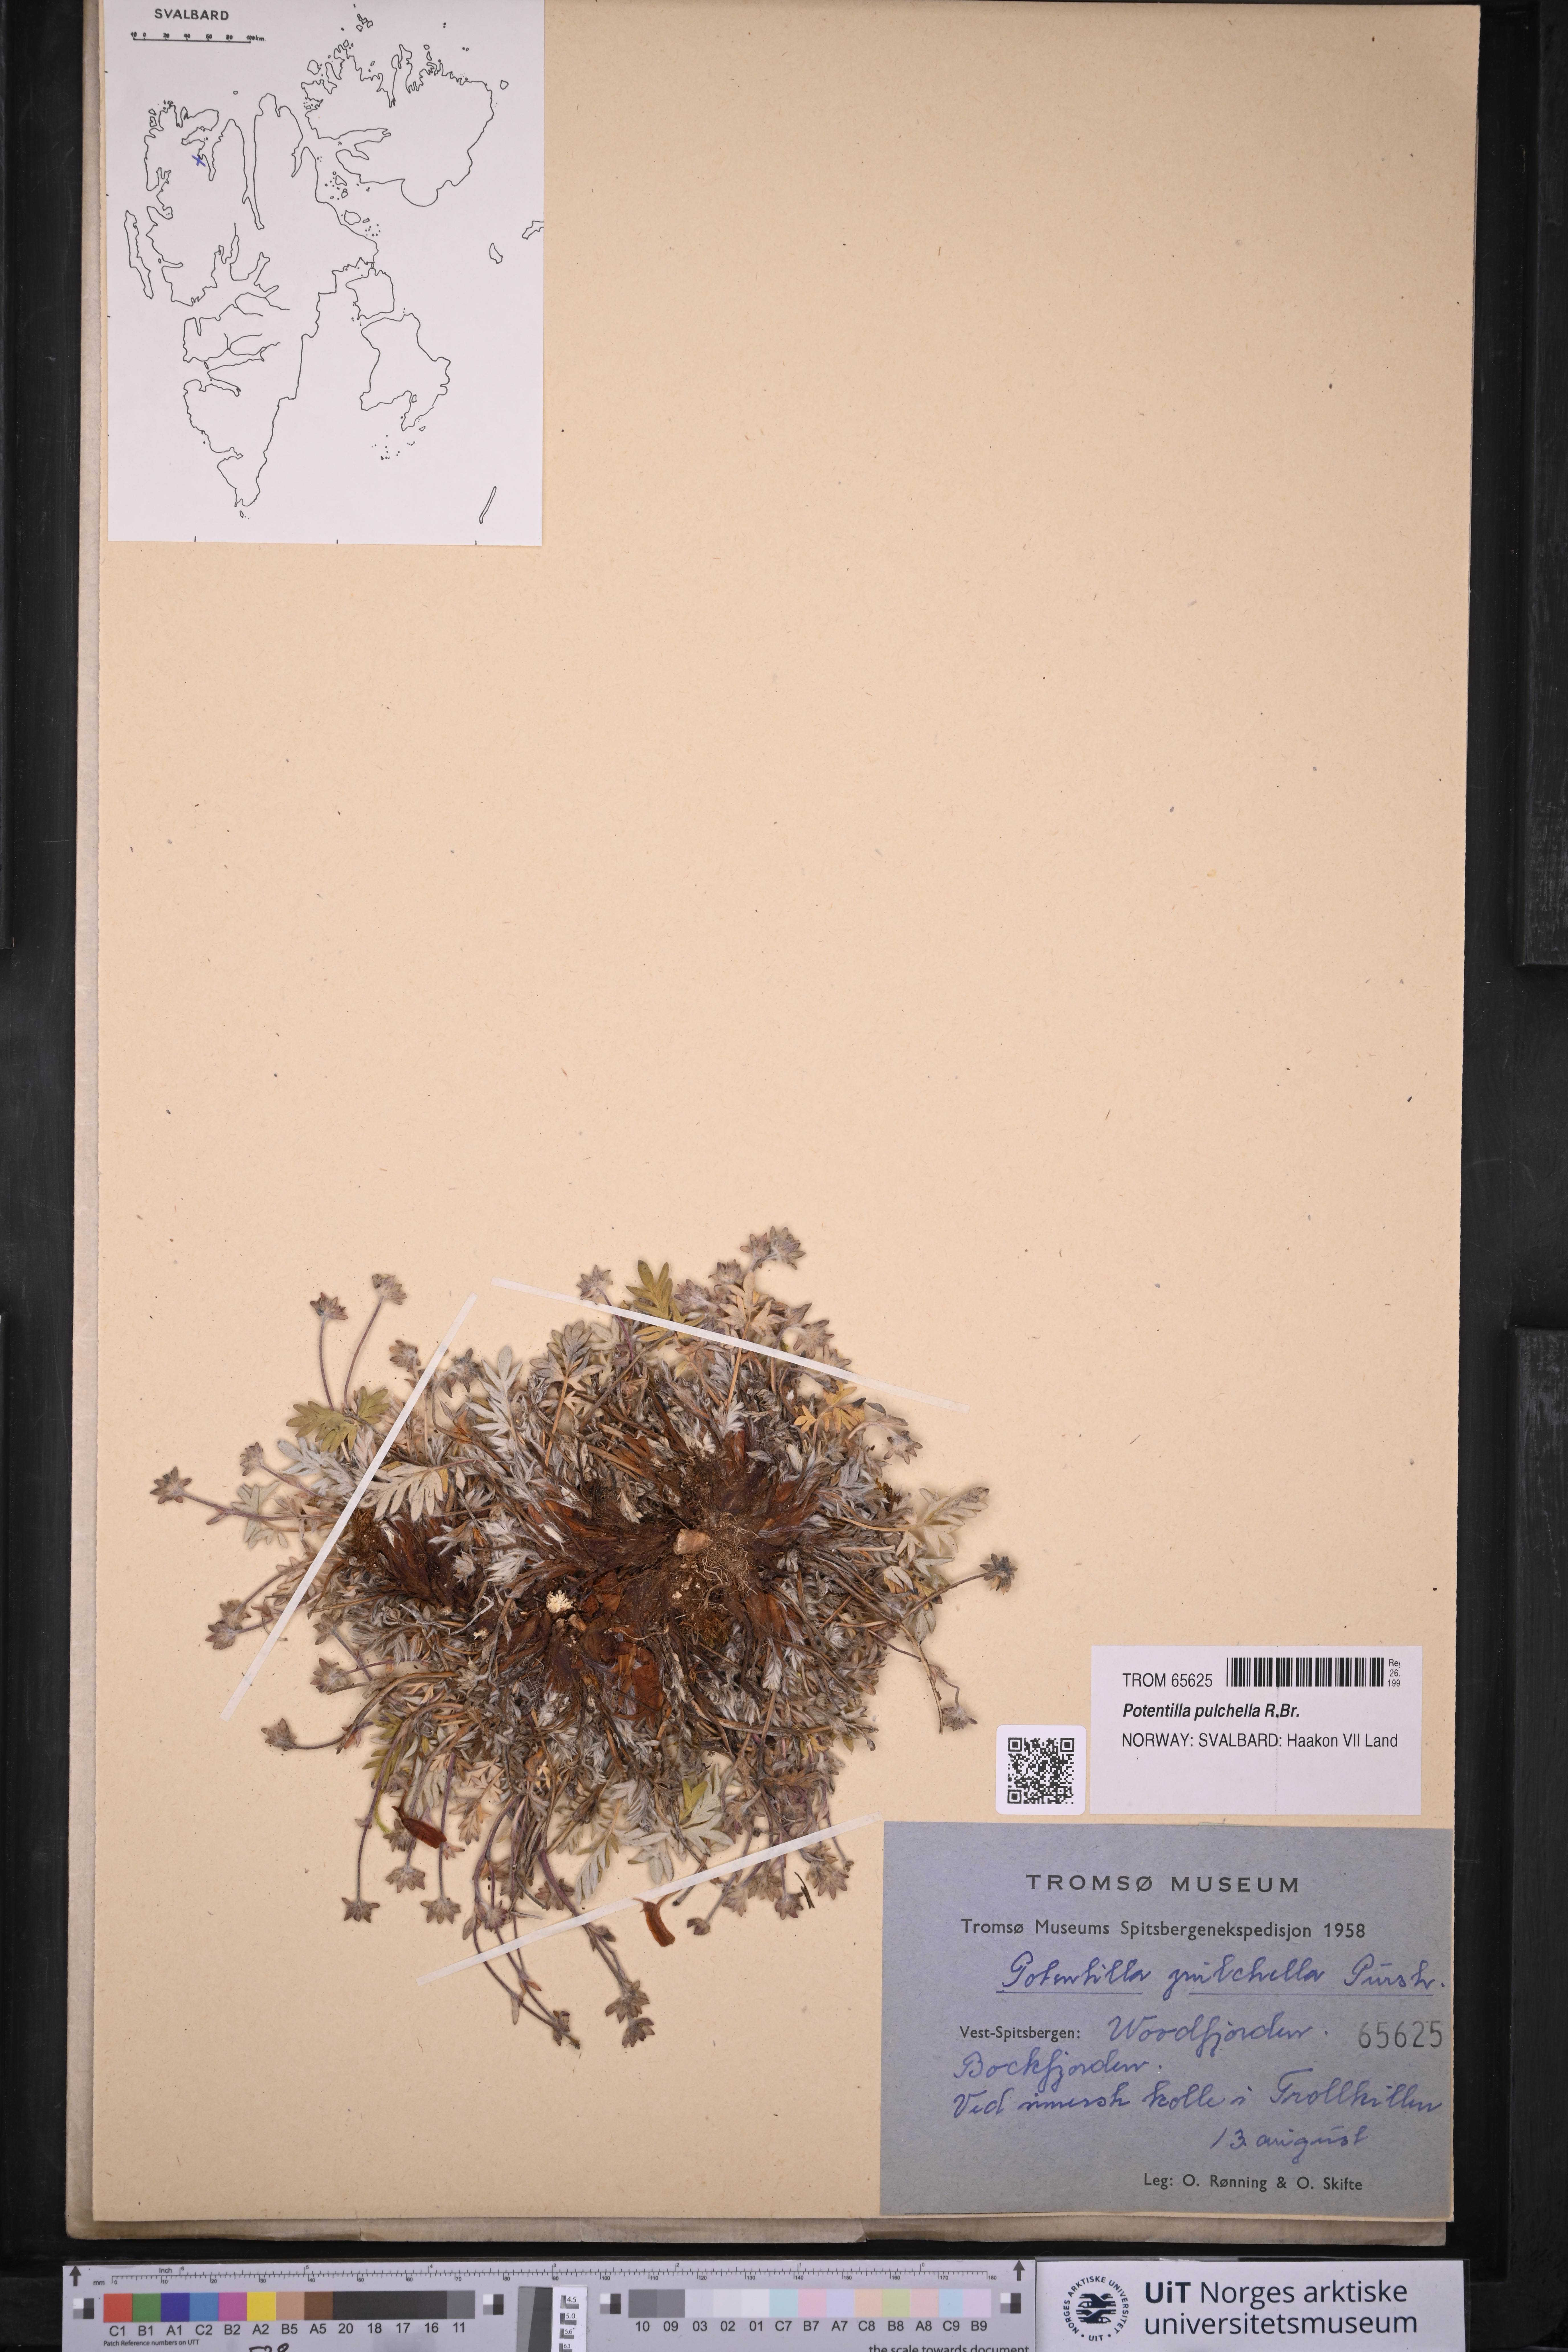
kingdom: Plantae
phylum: Tracheophyta
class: Magnoliopsida
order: Rosales
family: Rosaceae
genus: Potentilla
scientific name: Potentilla pulchella
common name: Pretty cinquefoil
